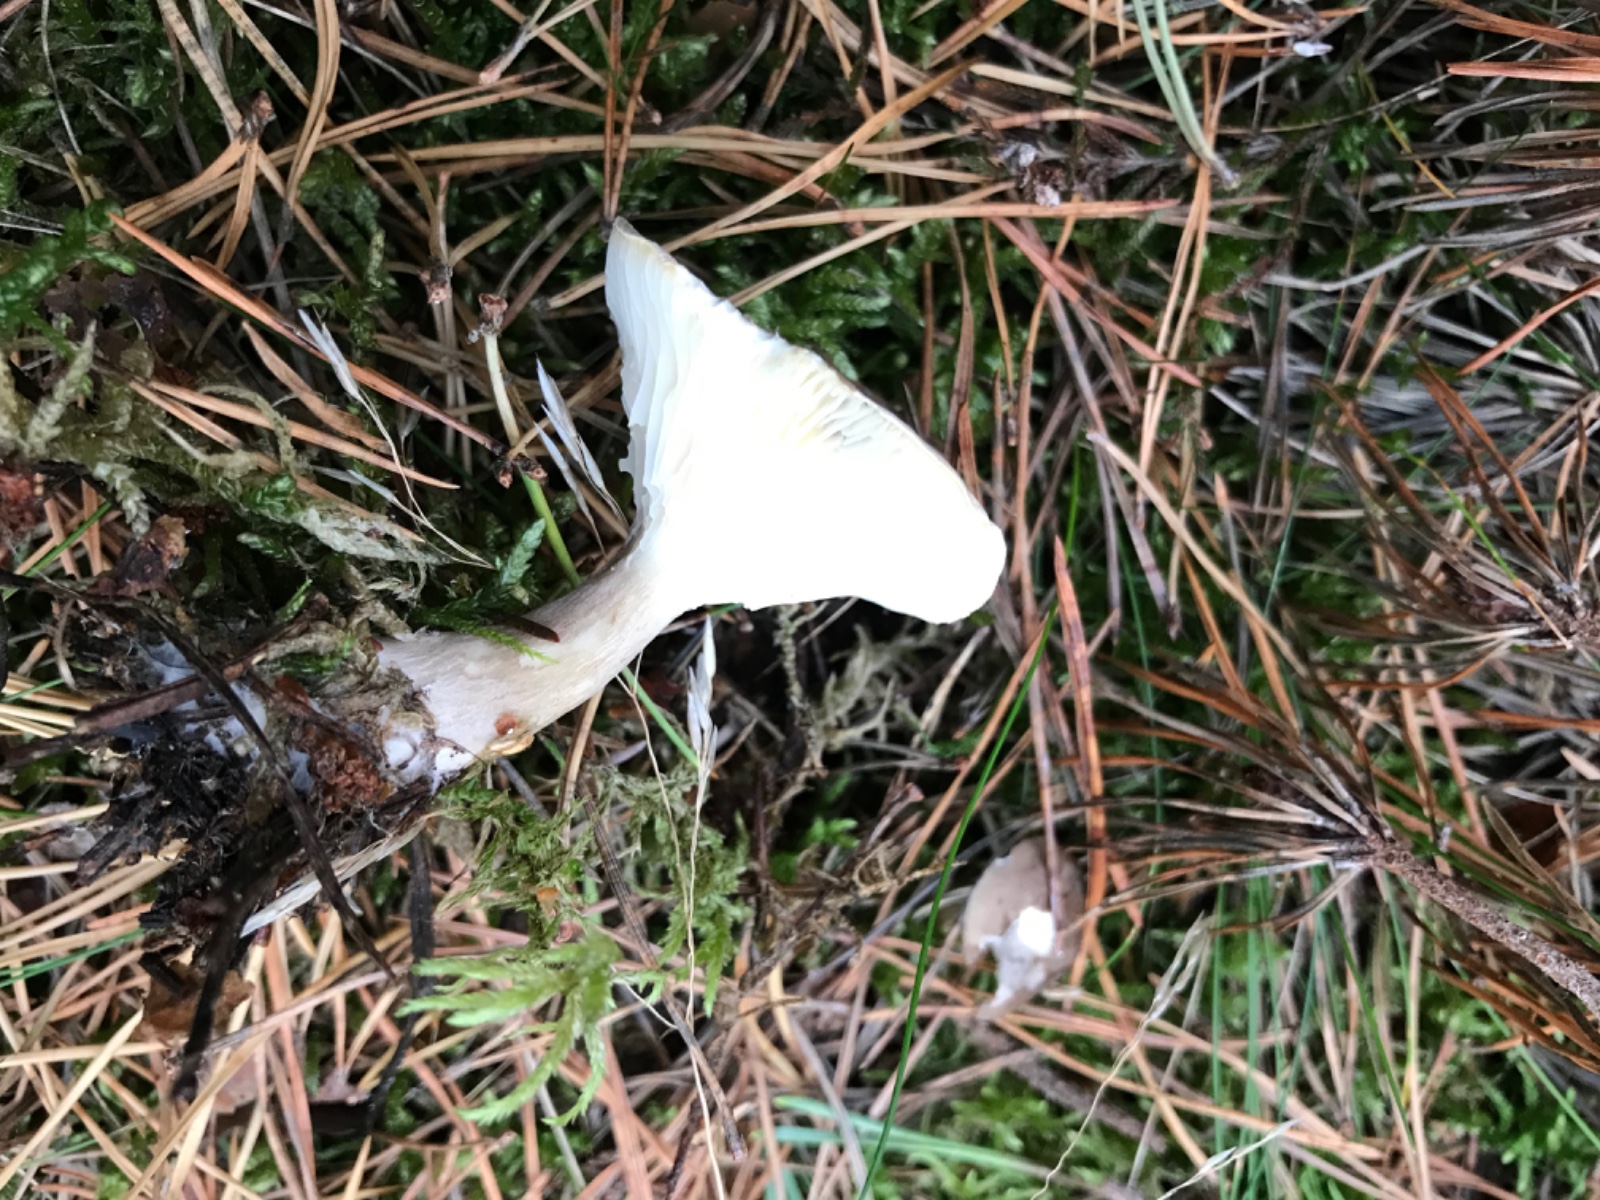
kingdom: Fungi
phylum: Basidiomycota
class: Agaricomycetes
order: Agaricales
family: Hygrophoraceae
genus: Ampulloclitocybe
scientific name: Ampulloclitocybe clavipes
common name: køllefod
